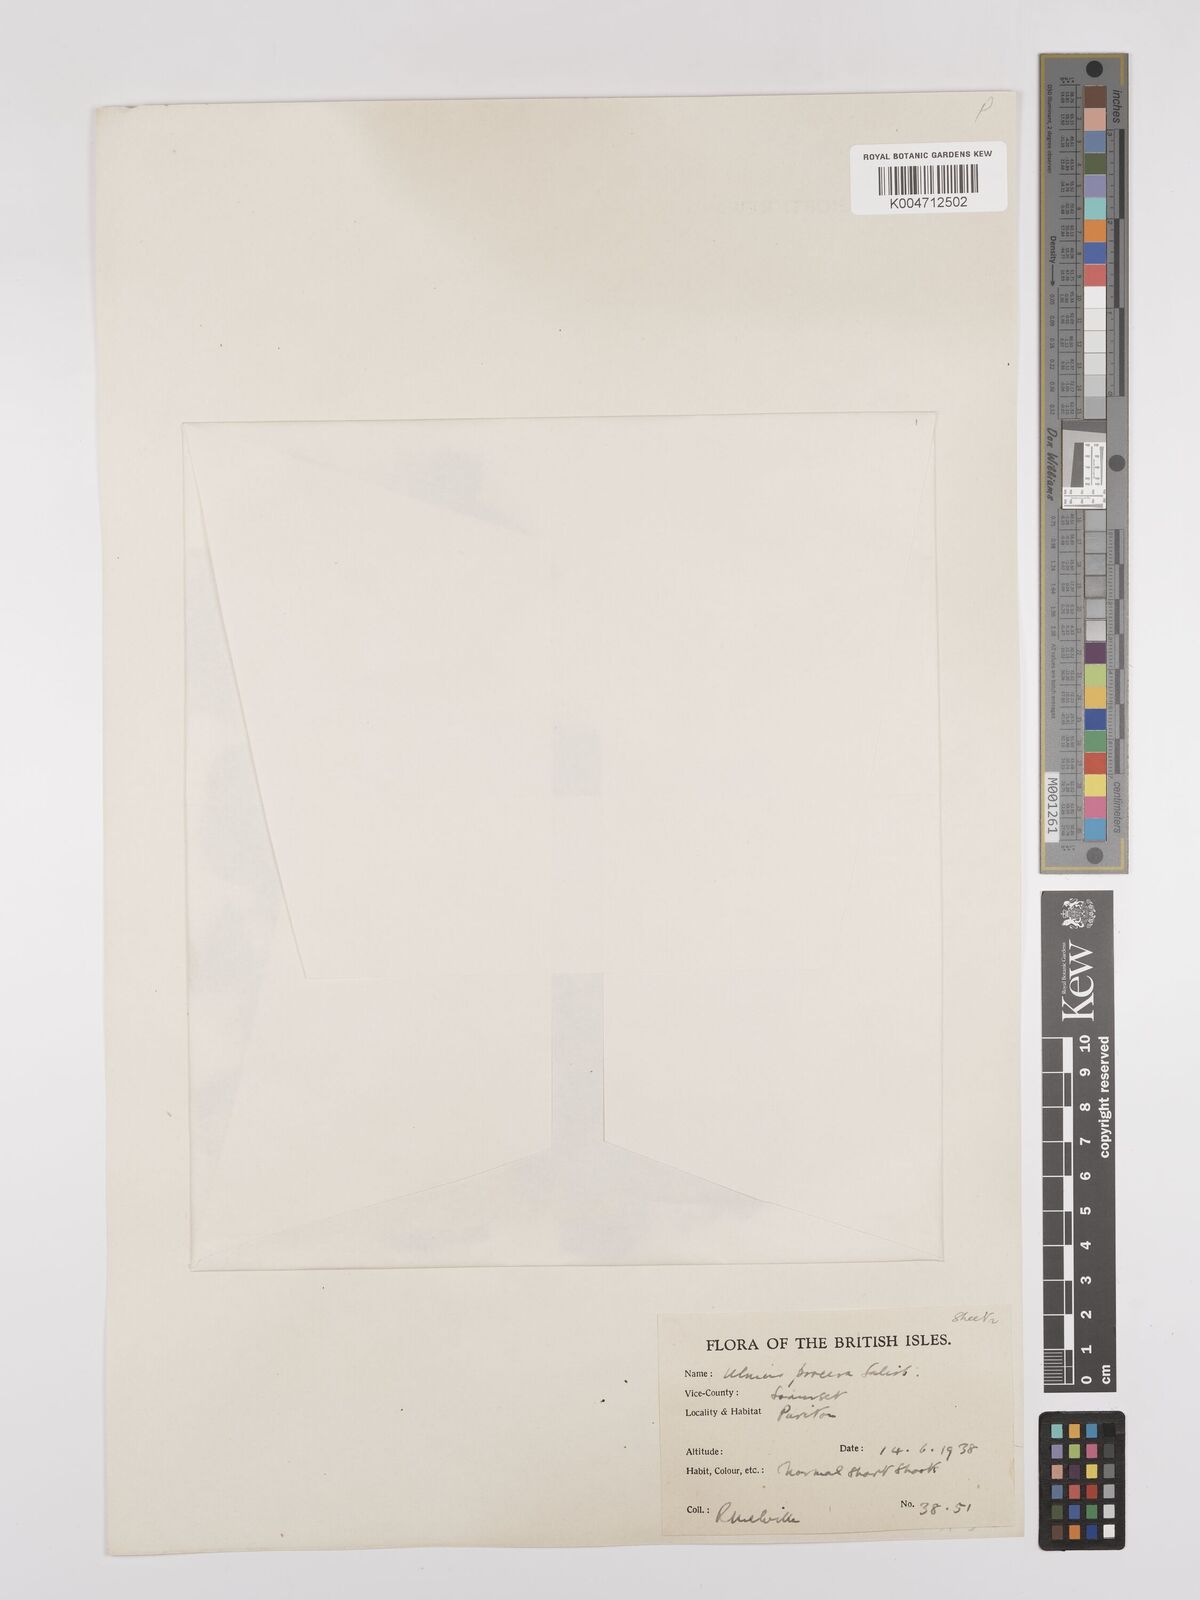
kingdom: Plantae
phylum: Tracheophyta
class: Magnoliopsida
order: Rosales
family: Ulmaceae
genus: Ulmus
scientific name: Ulmus minor
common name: Small-leaved elm
